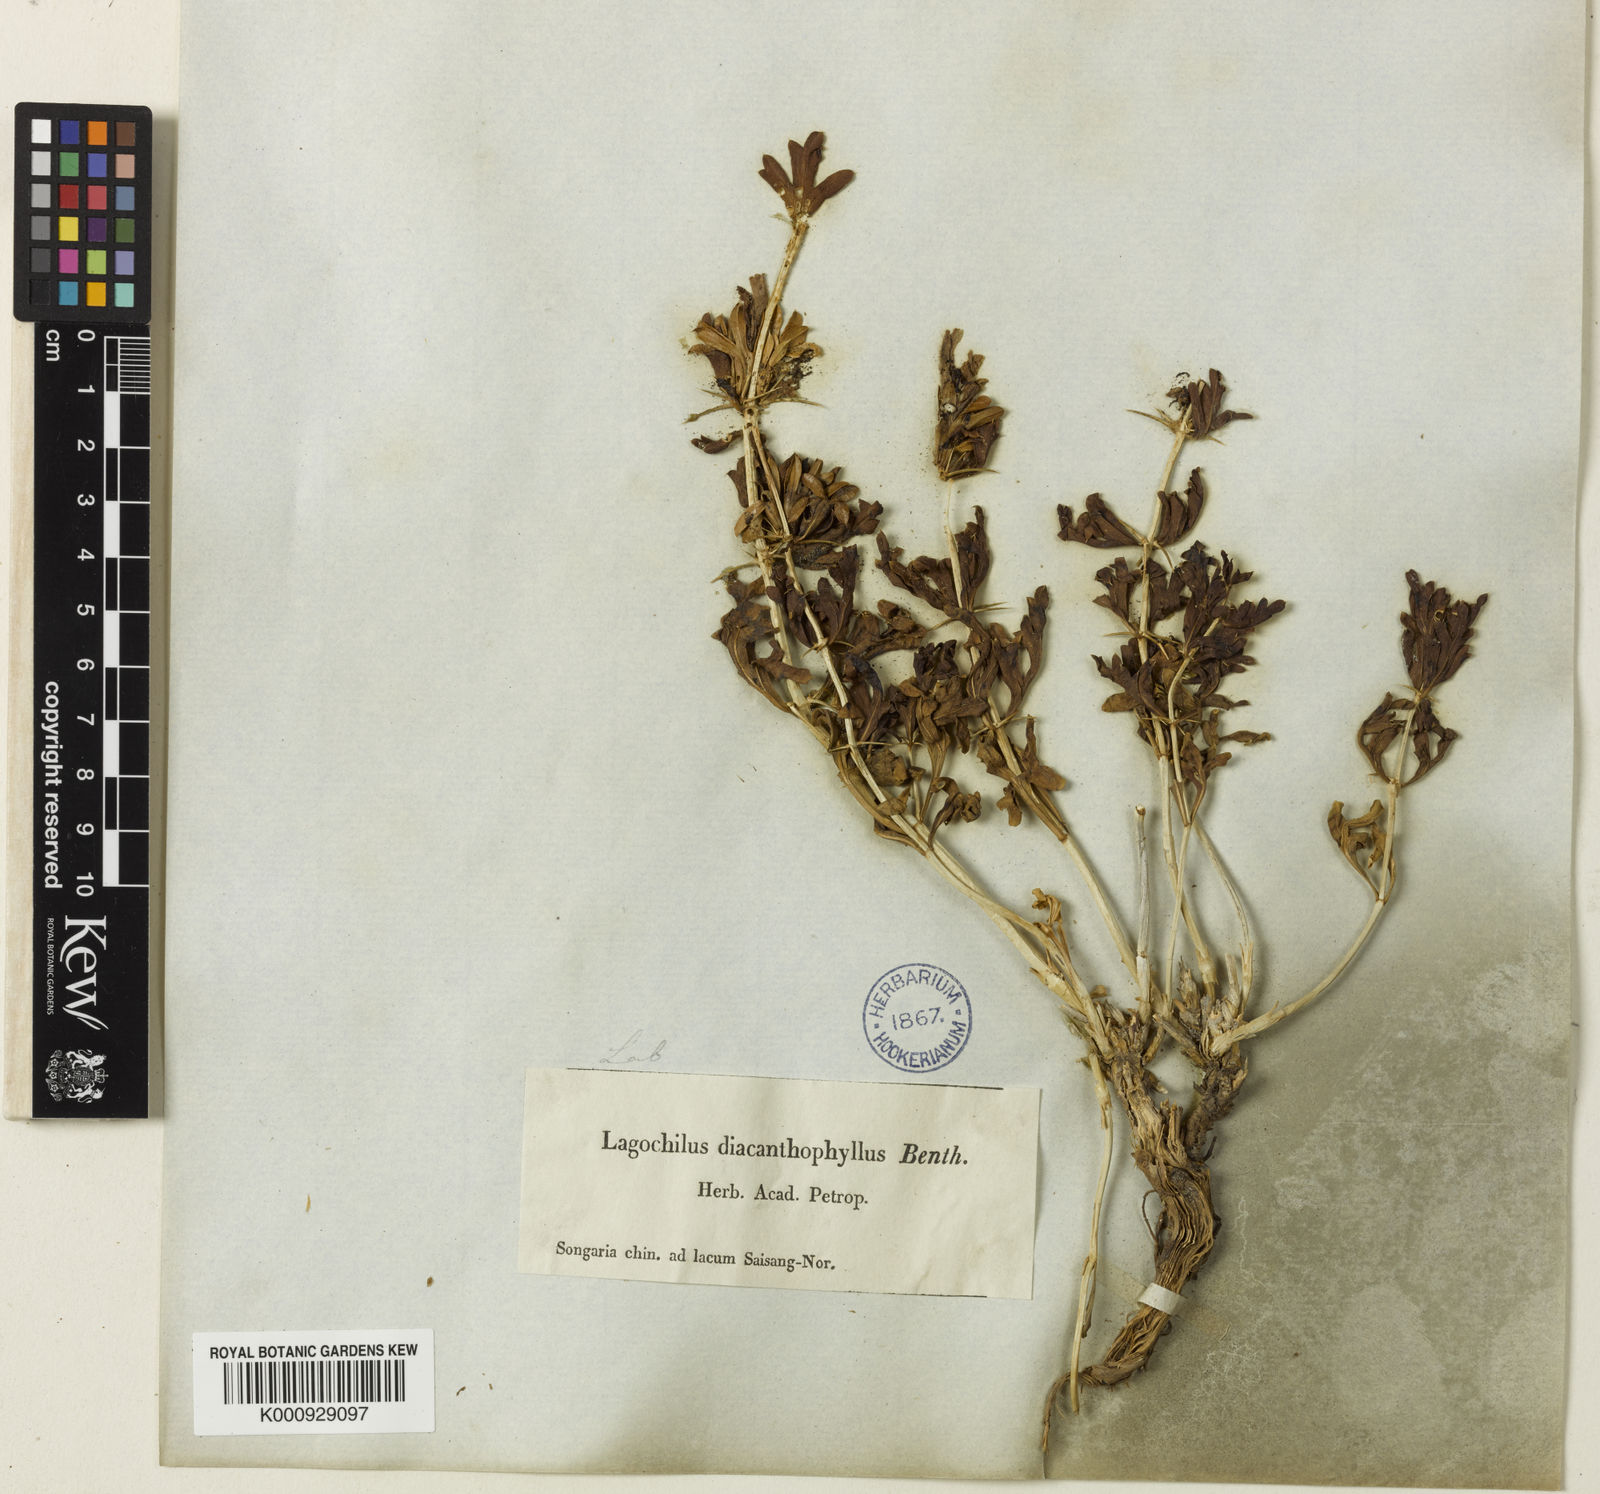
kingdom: Plantae
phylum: Tracheophyta
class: Magnoliopsida
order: Lamiales
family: Lamiaceae
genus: Lagochilus
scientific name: Lagochilus diacanthophyllus
